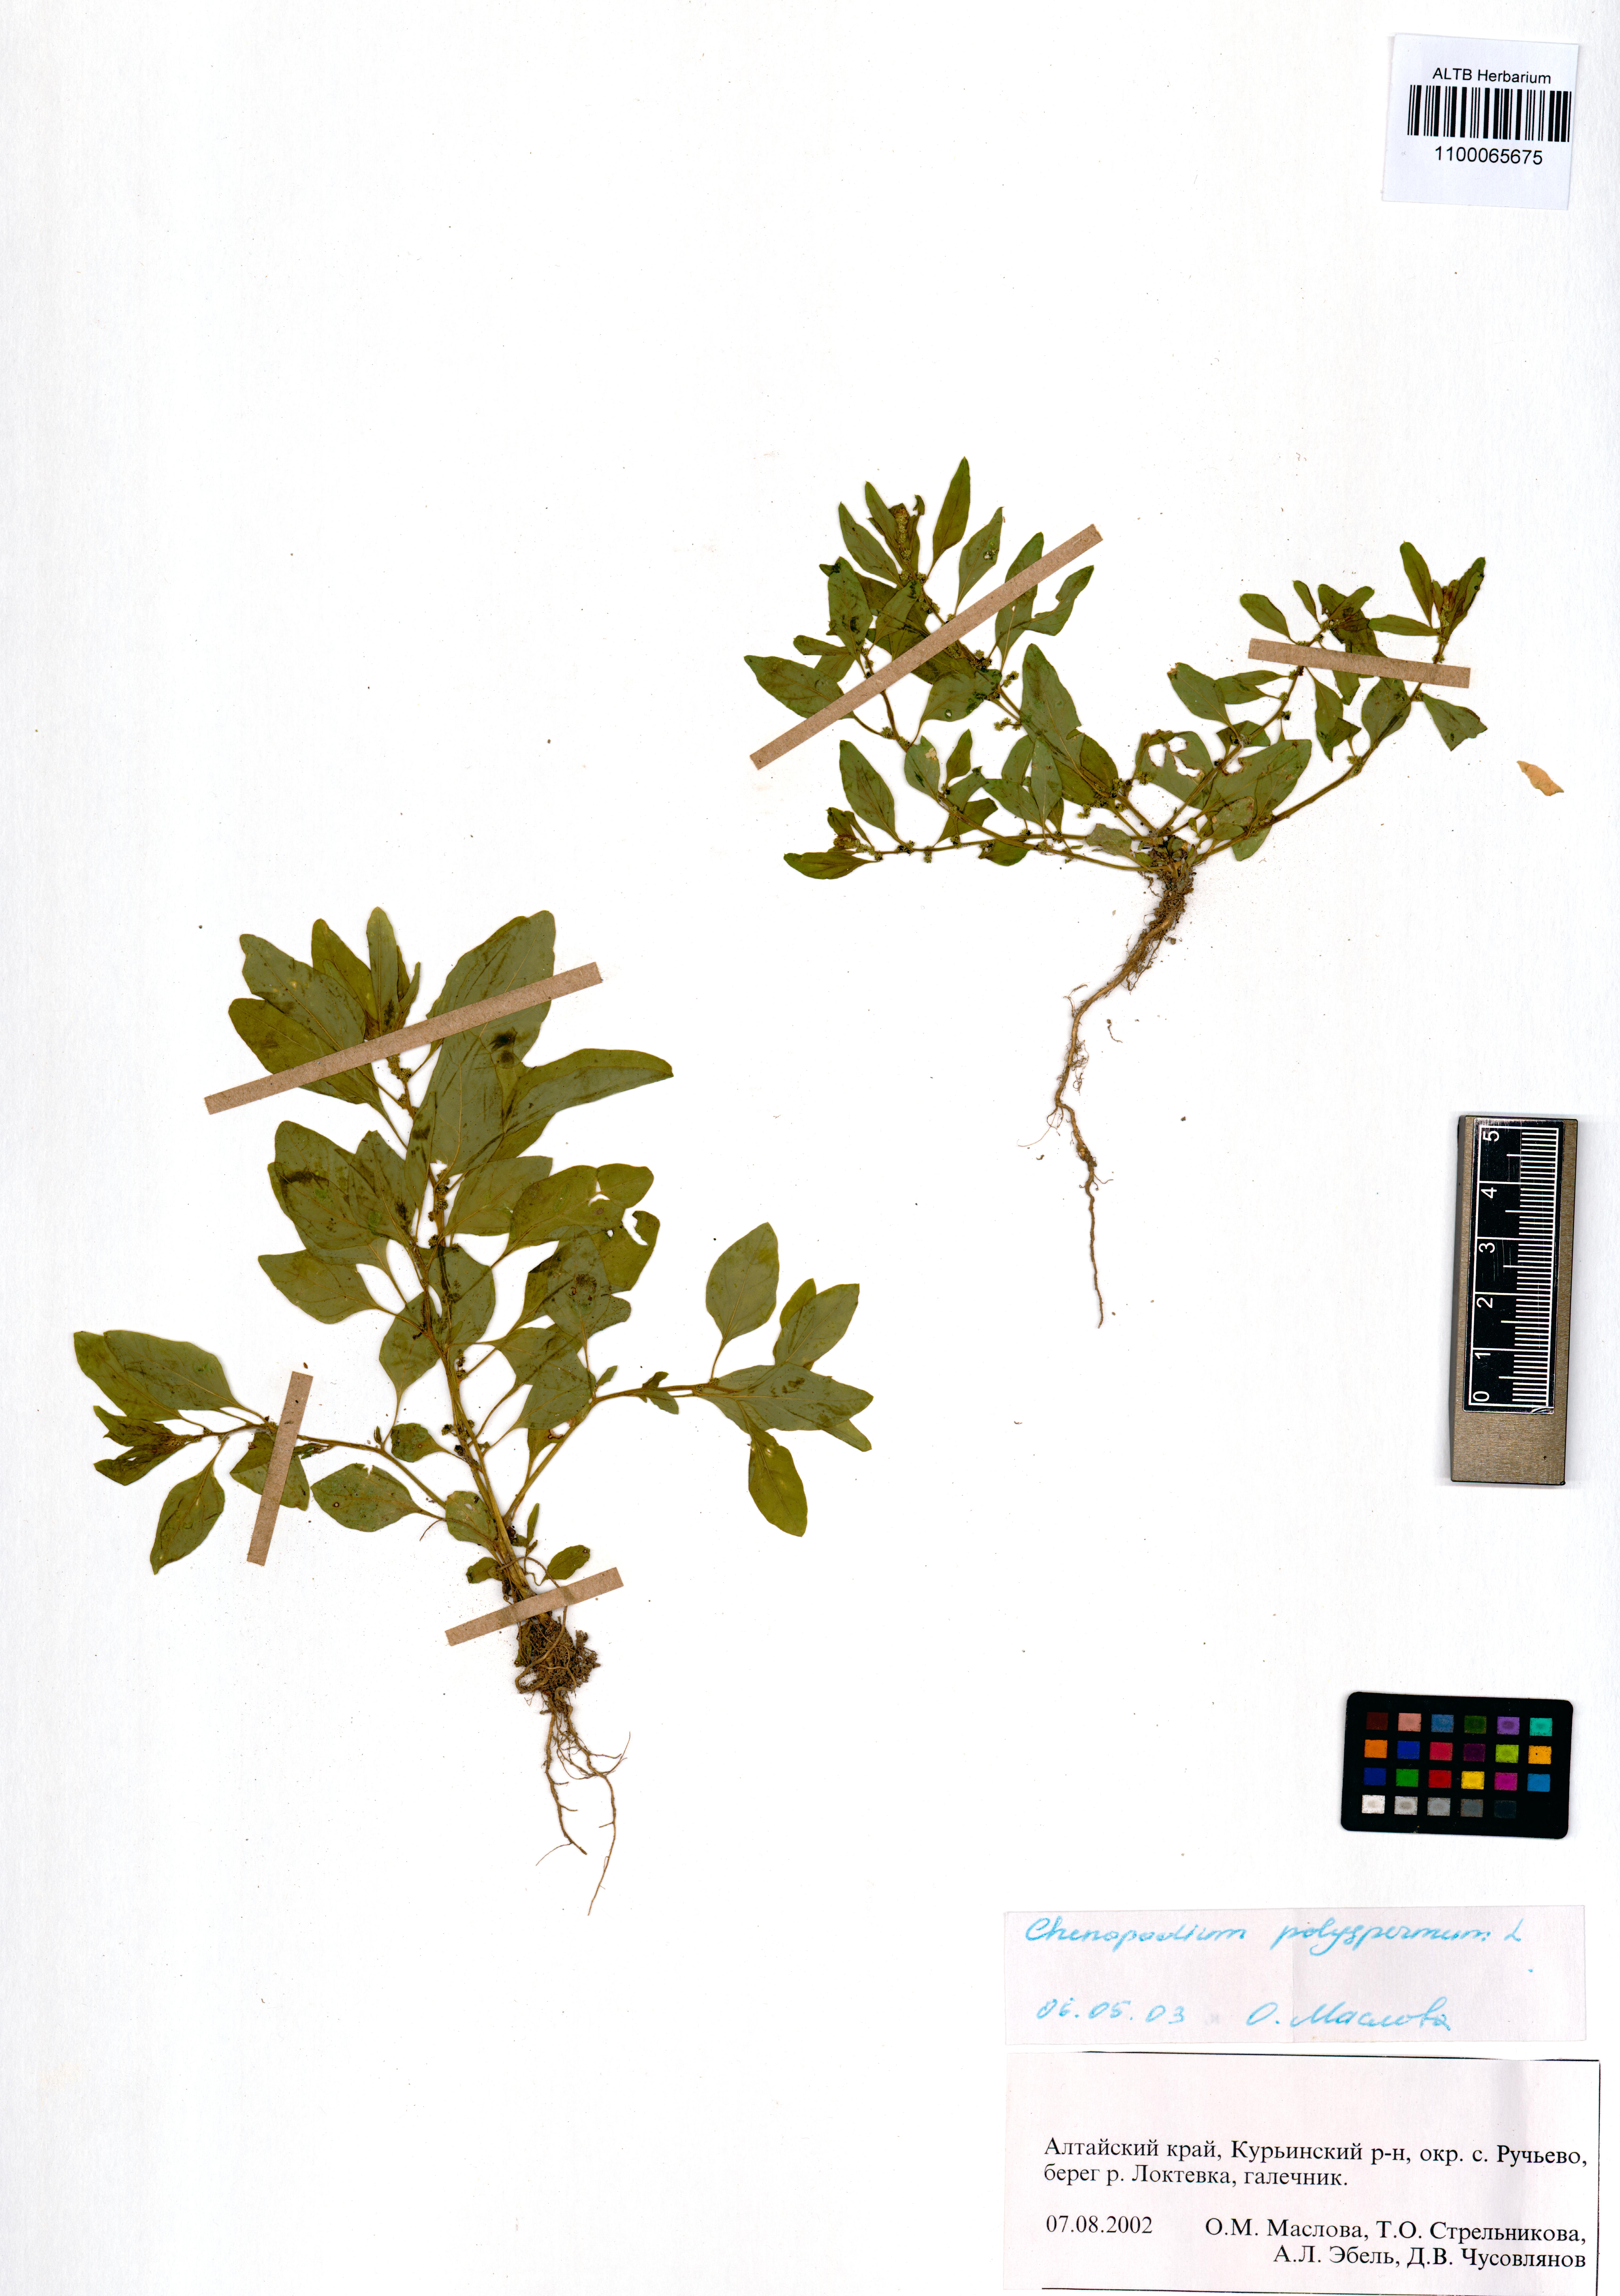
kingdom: Plantae
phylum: Tracheophyta
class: Magnoliopsida
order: Caryophyllales
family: Amaranthaceae
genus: Lipandra
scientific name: Lipandra polysperma
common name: Many-seed goosefoot
